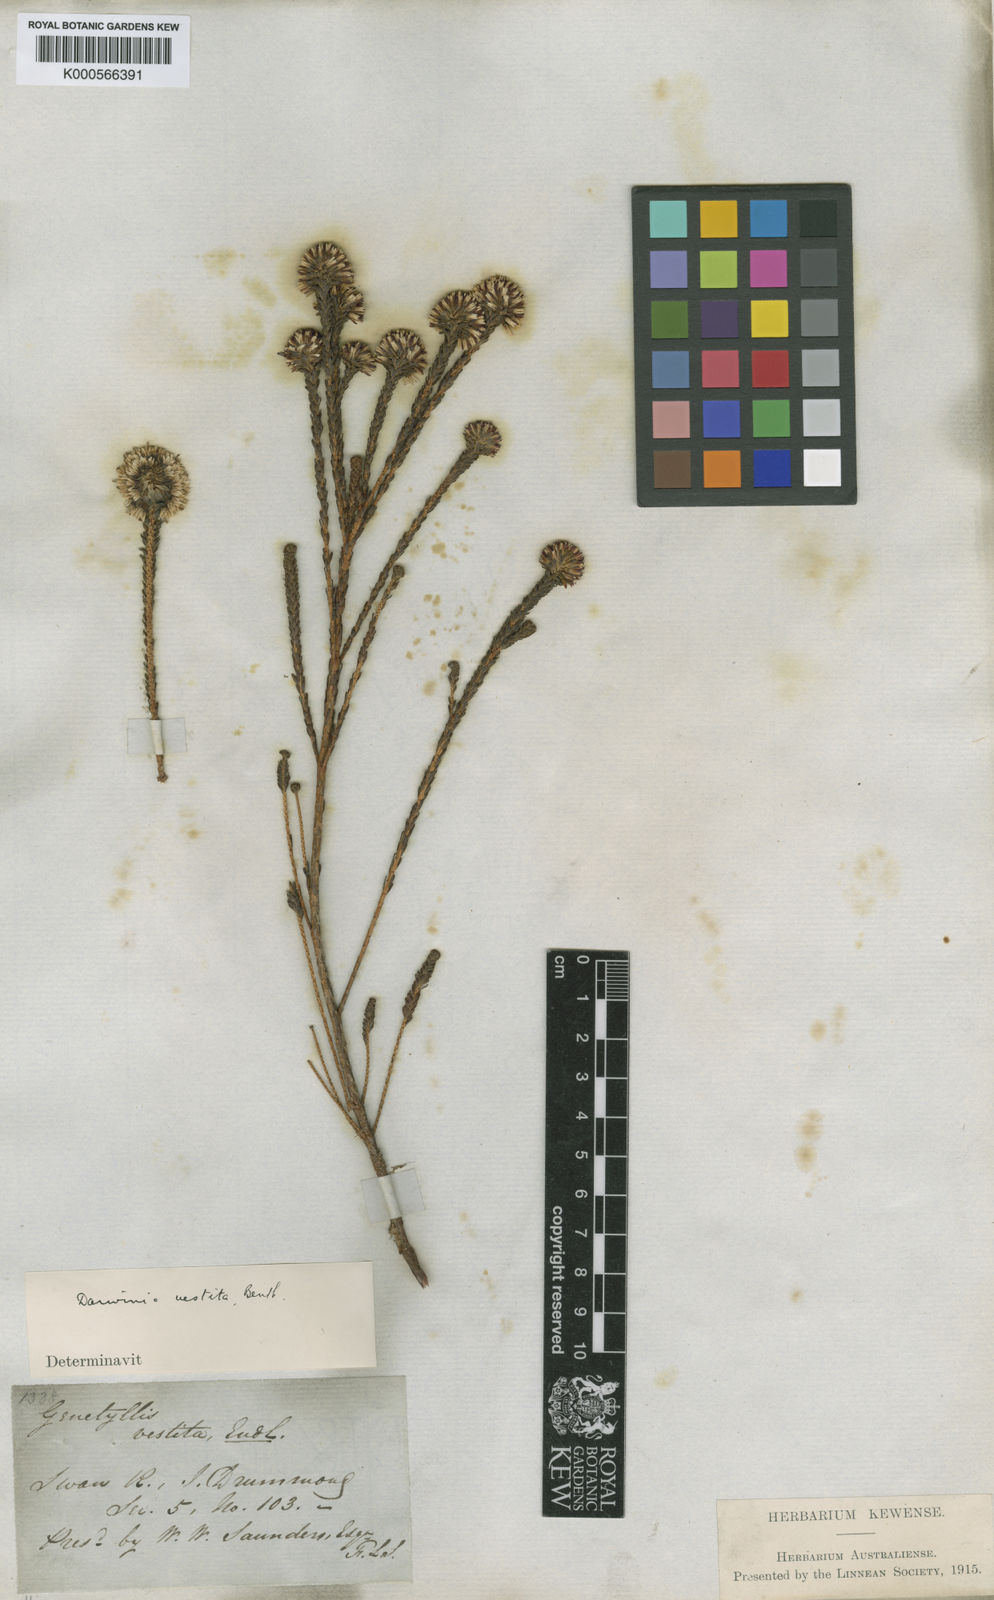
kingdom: Plantae
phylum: Tracheophyta
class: Magnoliopsida
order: Myrtales
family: Myrtaceae
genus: Darwinia
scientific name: Darwinia vestita
